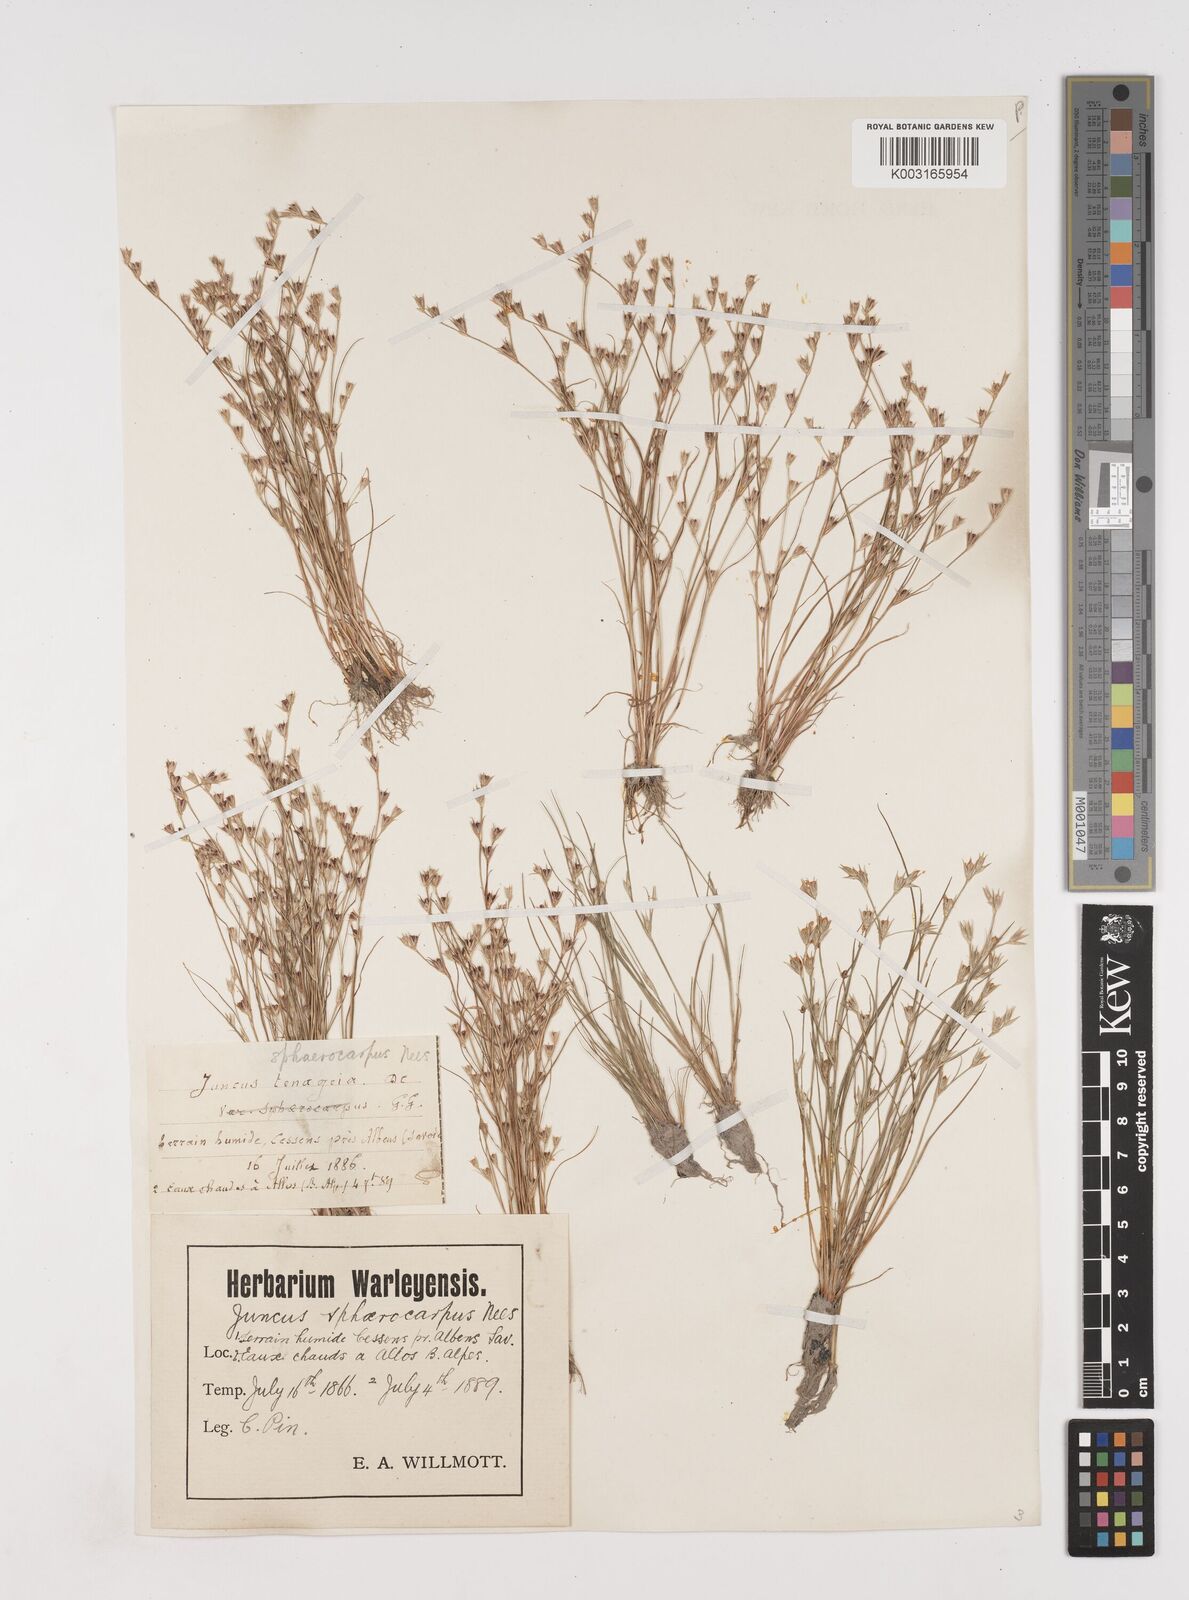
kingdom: Plantae
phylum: Tracheophyta
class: Liliopsida
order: Poales
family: Juncaceae
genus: Juncus
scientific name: Juncus bufonius
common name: Toad rush
